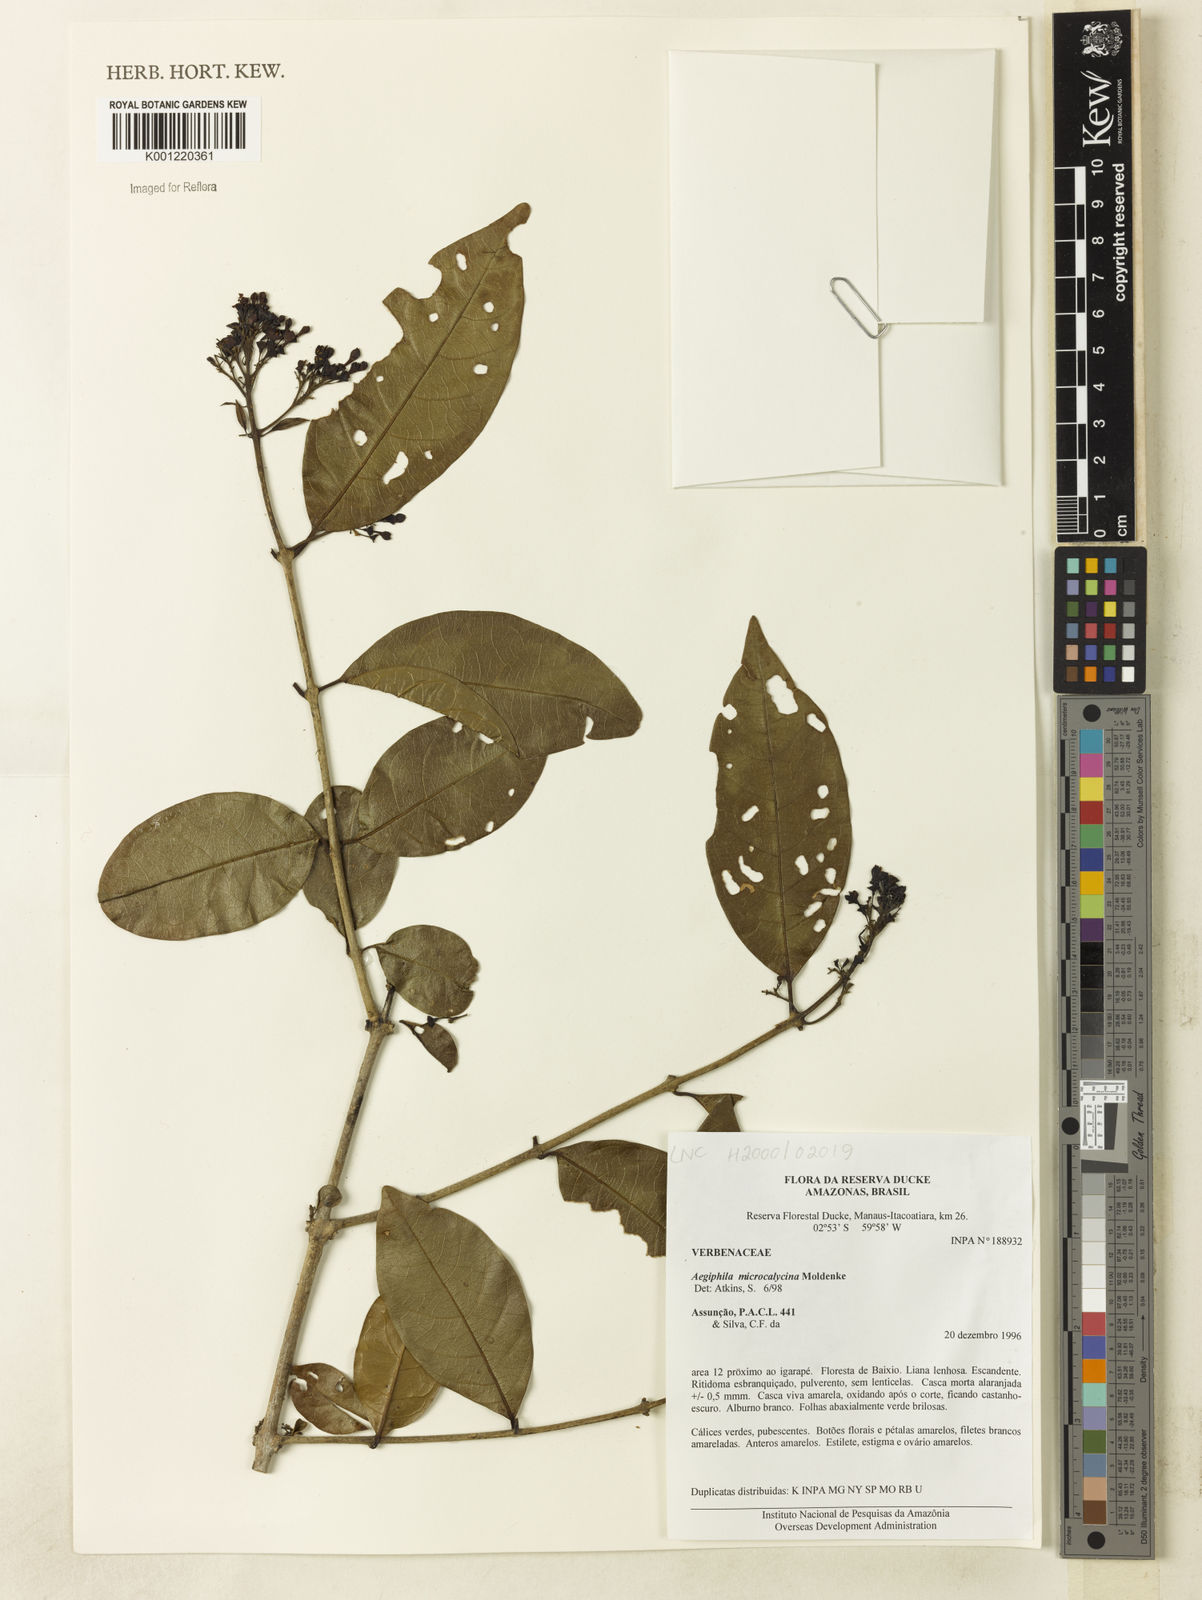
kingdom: Plantae
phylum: Tracheophyta
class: Magnoliopsida
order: Lamiales
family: Lamiaceae
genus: Aegiphila
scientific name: Aegiphila microcalycina
